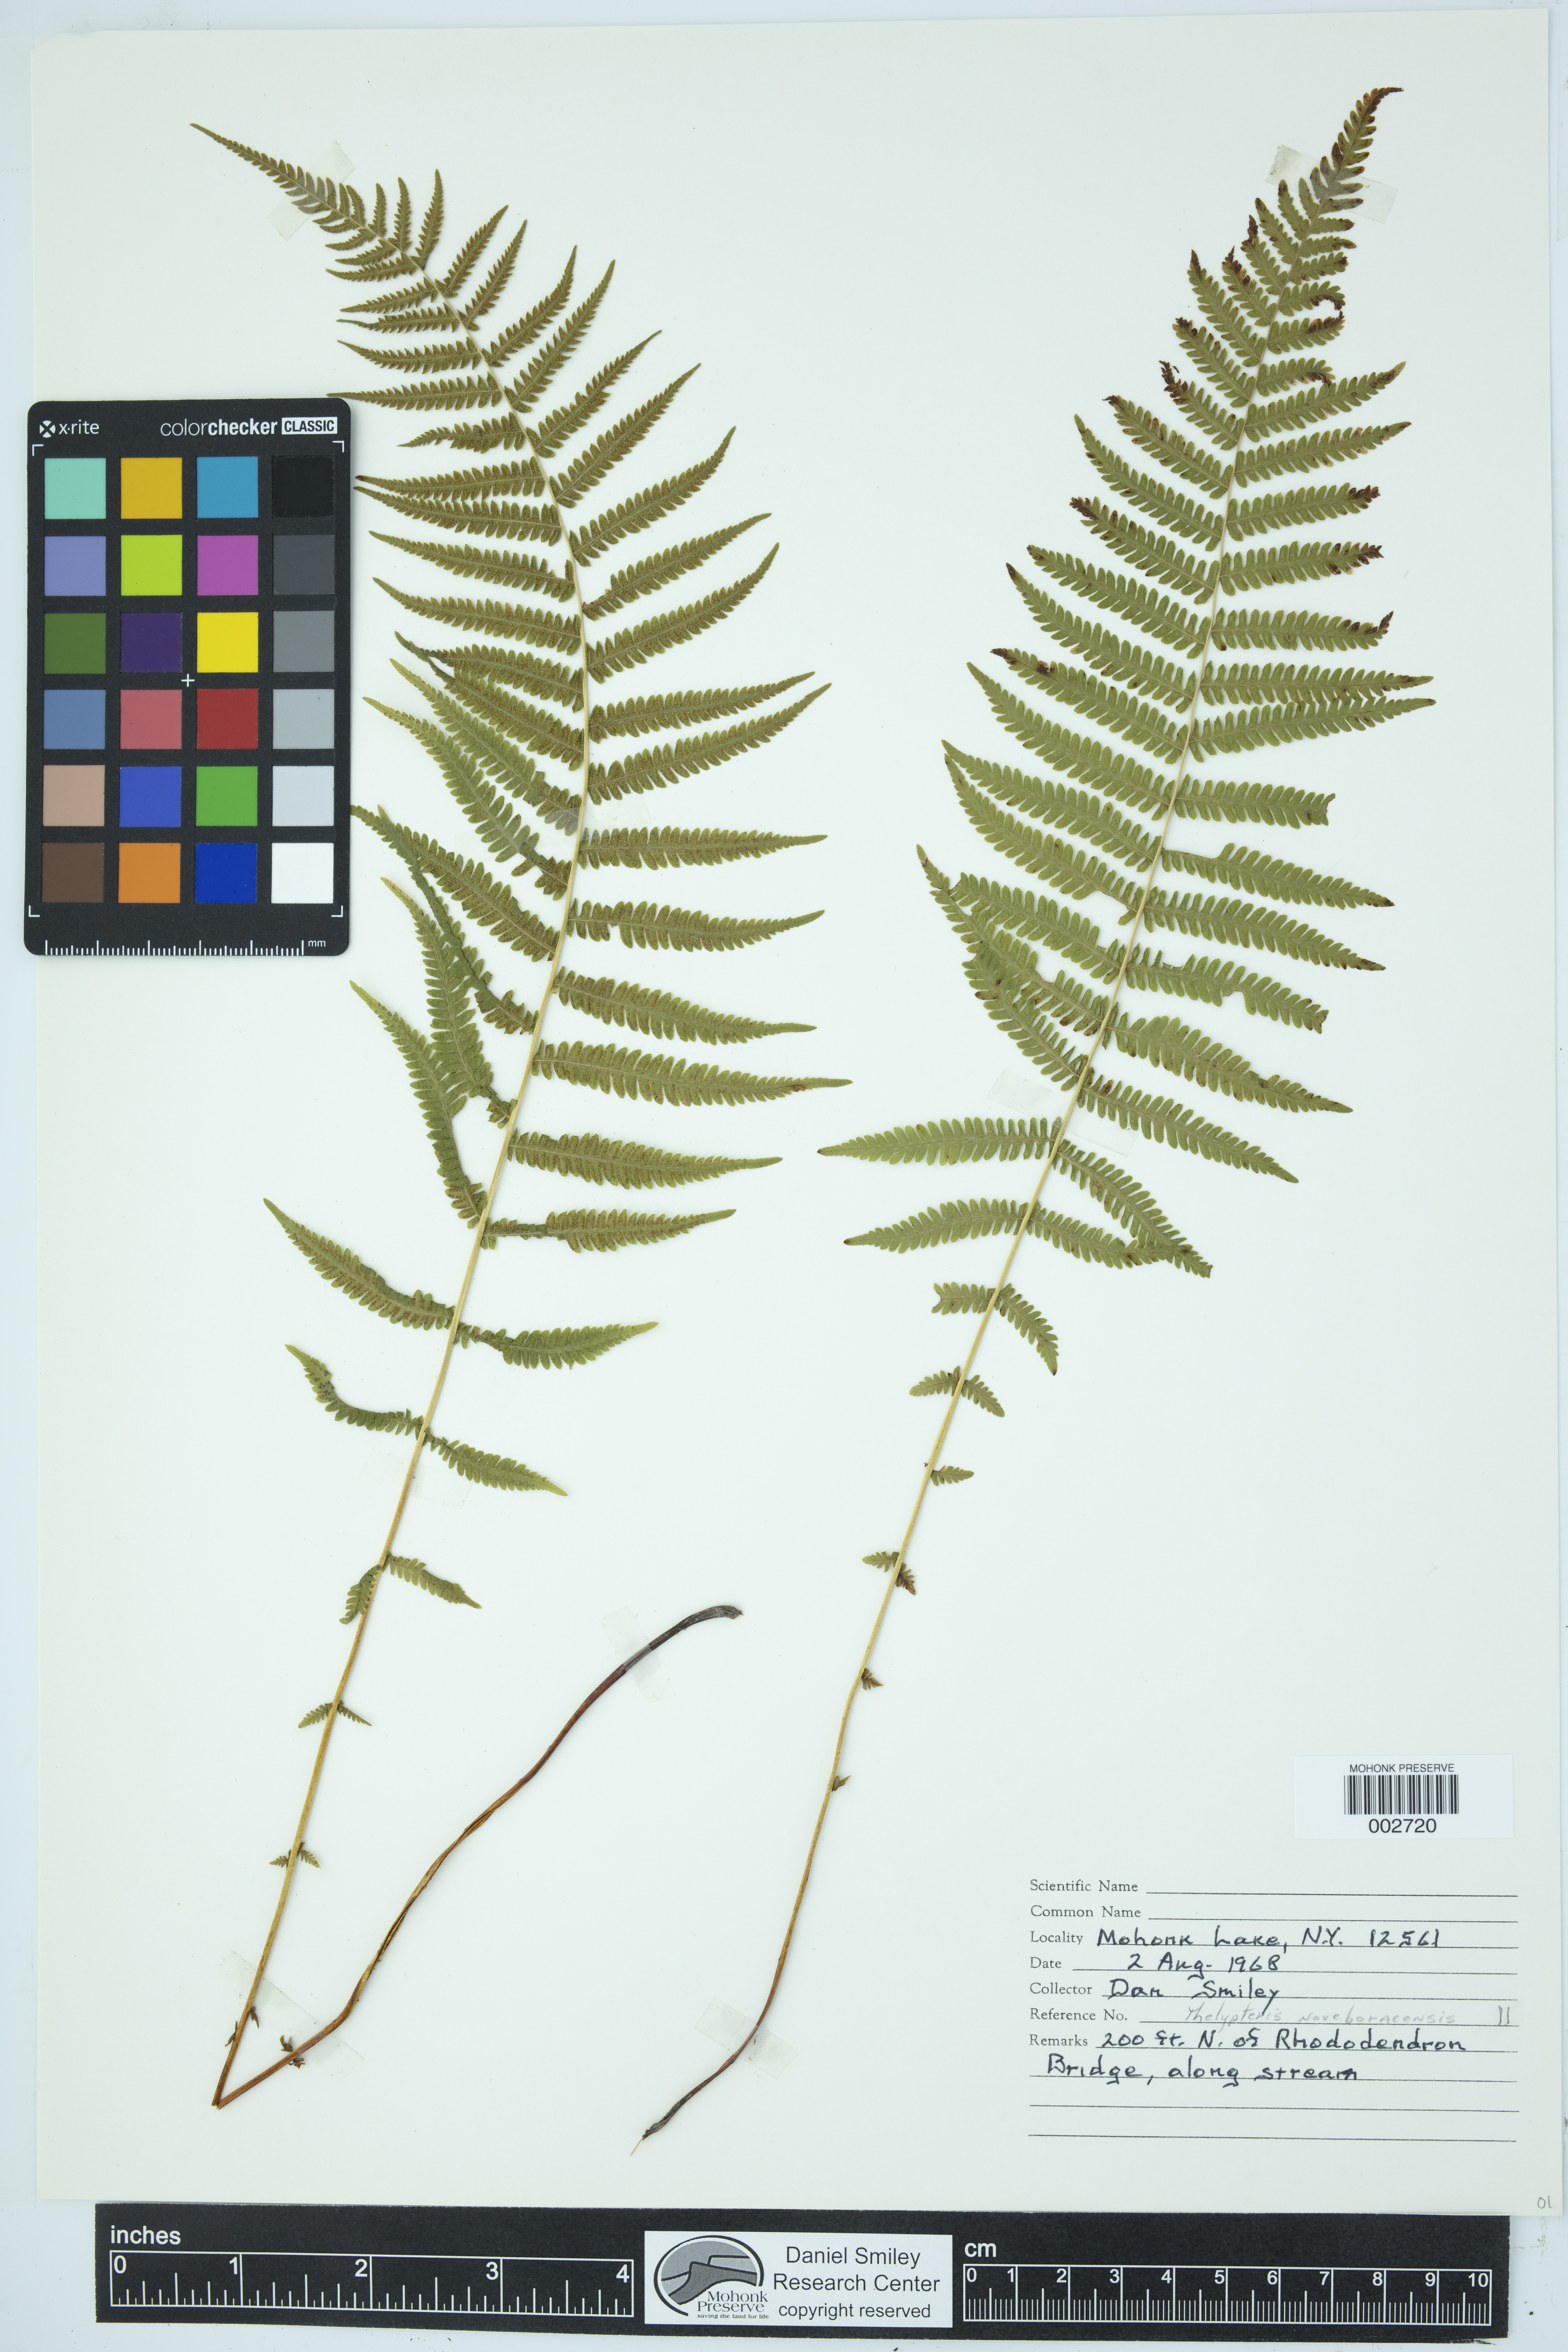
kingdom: Plantae
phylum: Tracheophyta
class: Polypodiopsida
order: Polypodiales
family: Thelypteridaceae
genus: Amauropelta
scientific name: Amauropelta noveboracensis
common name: New york fern
